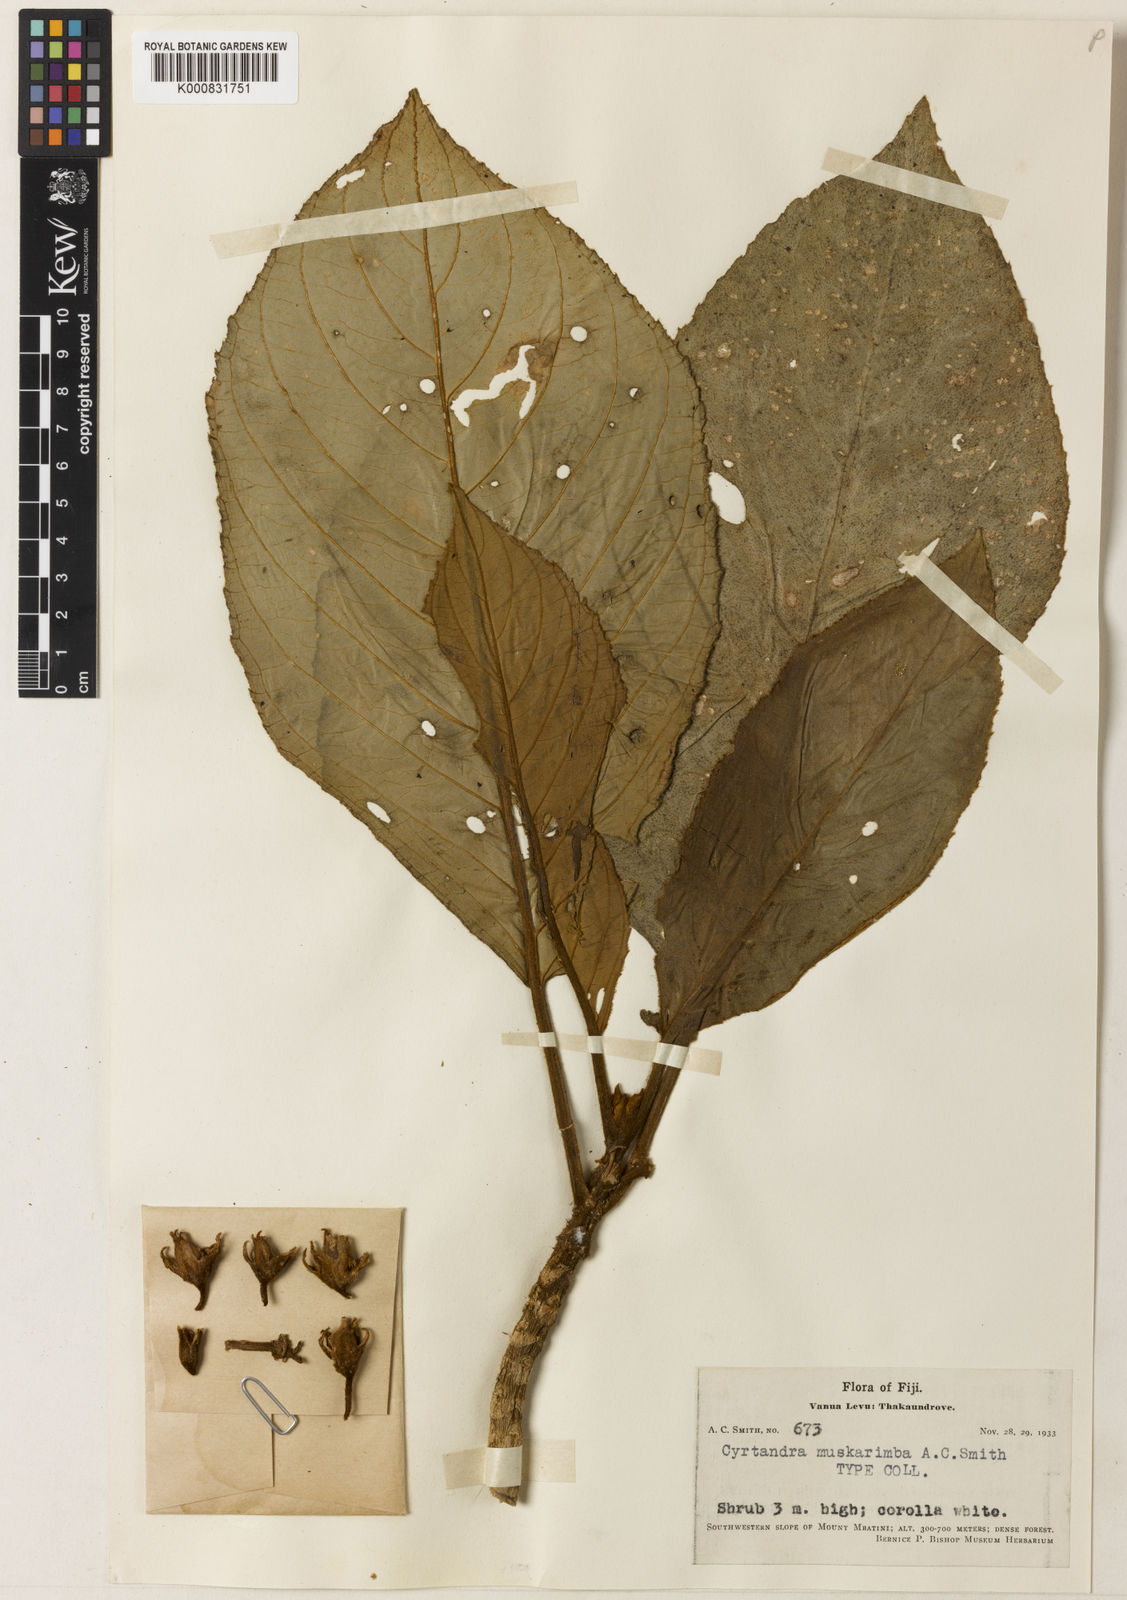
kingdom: Plantae
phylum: Tracheophyta
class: Magnoliopsida
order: Lamiales
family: Gesneriaceae
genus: Cyrtandra
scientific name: Cyrtandra muskarimba
